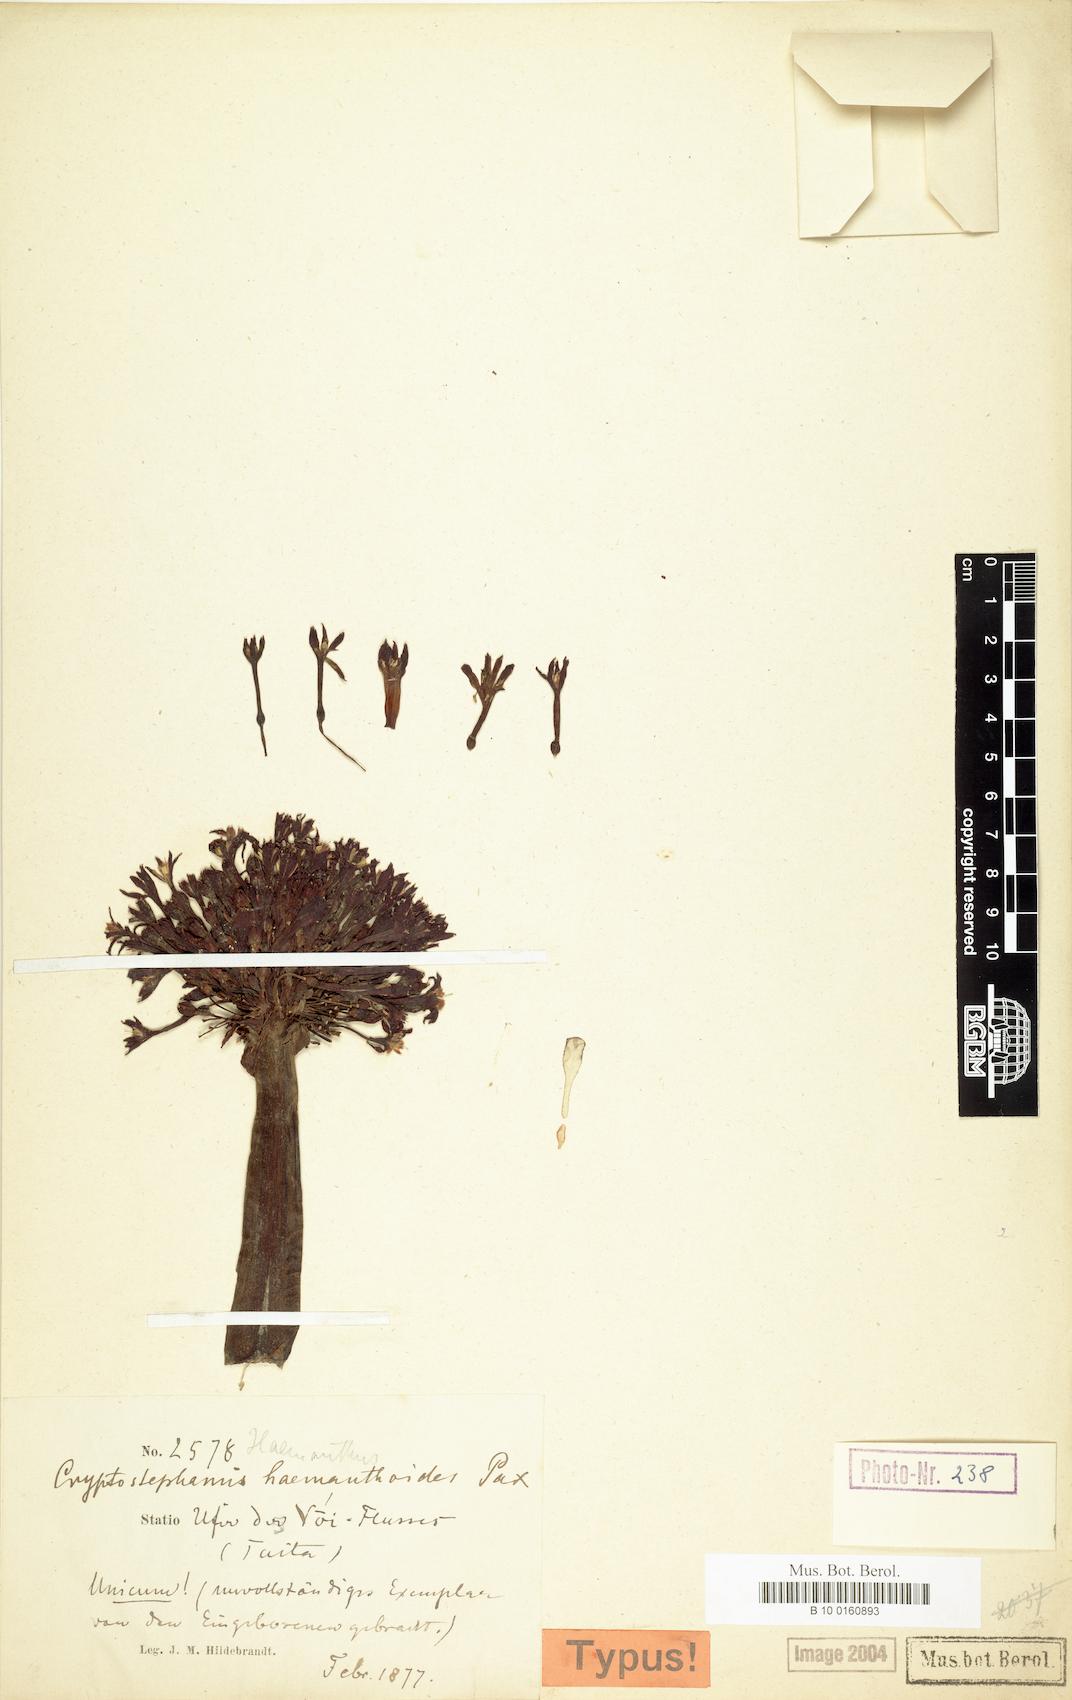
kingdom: Plantae
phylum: Tracheophyta
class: Liliopsida
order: Asparagales
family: Amaryllidaceae
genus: Cryptostephanus
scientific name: Cryptostephanus haemanthoides
